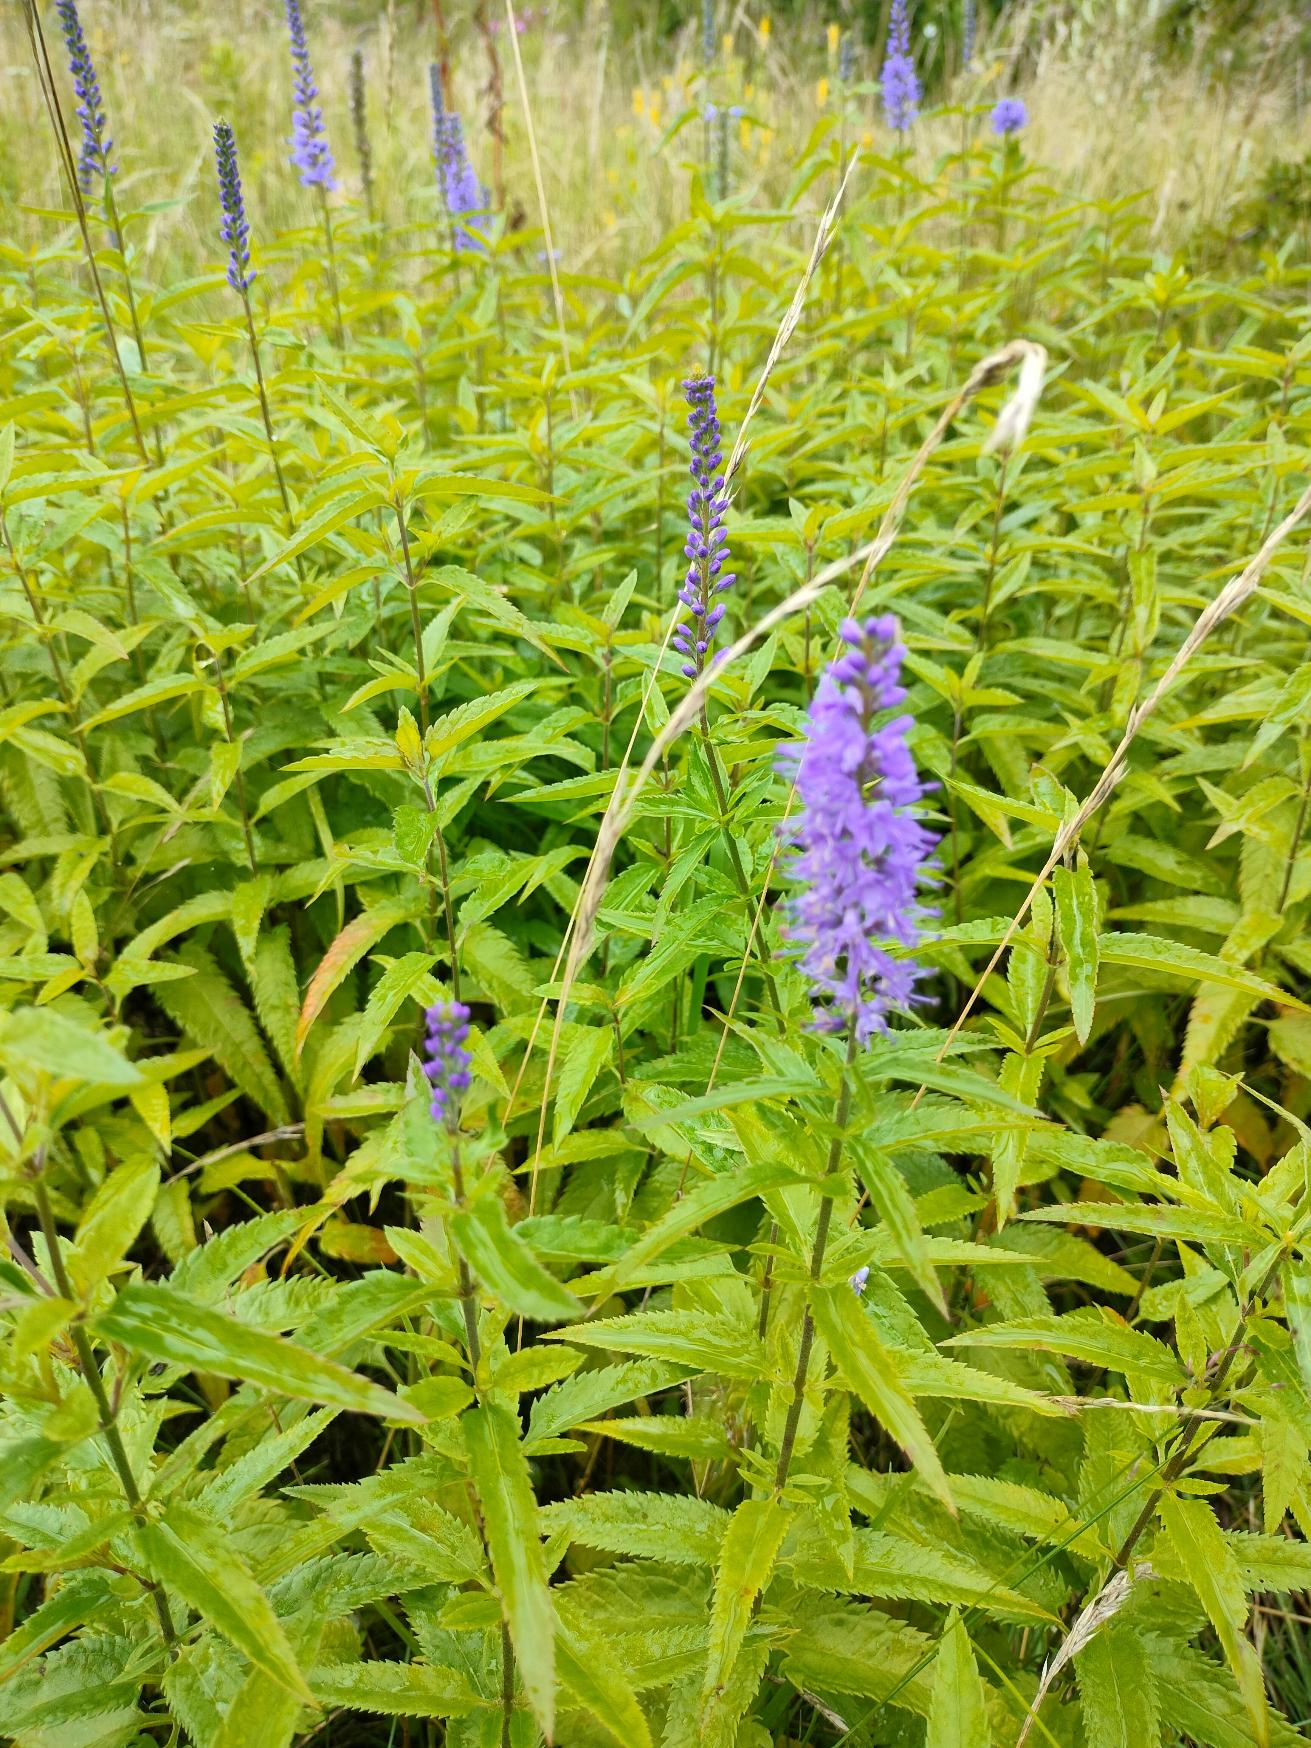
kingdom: Plantae
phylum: Tracheophyta
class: Magnoliopsida
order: Lamiales
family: Plantaginaceae
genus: Veronica
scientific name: Veronica longifolia
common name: Langbladet ærenpris
